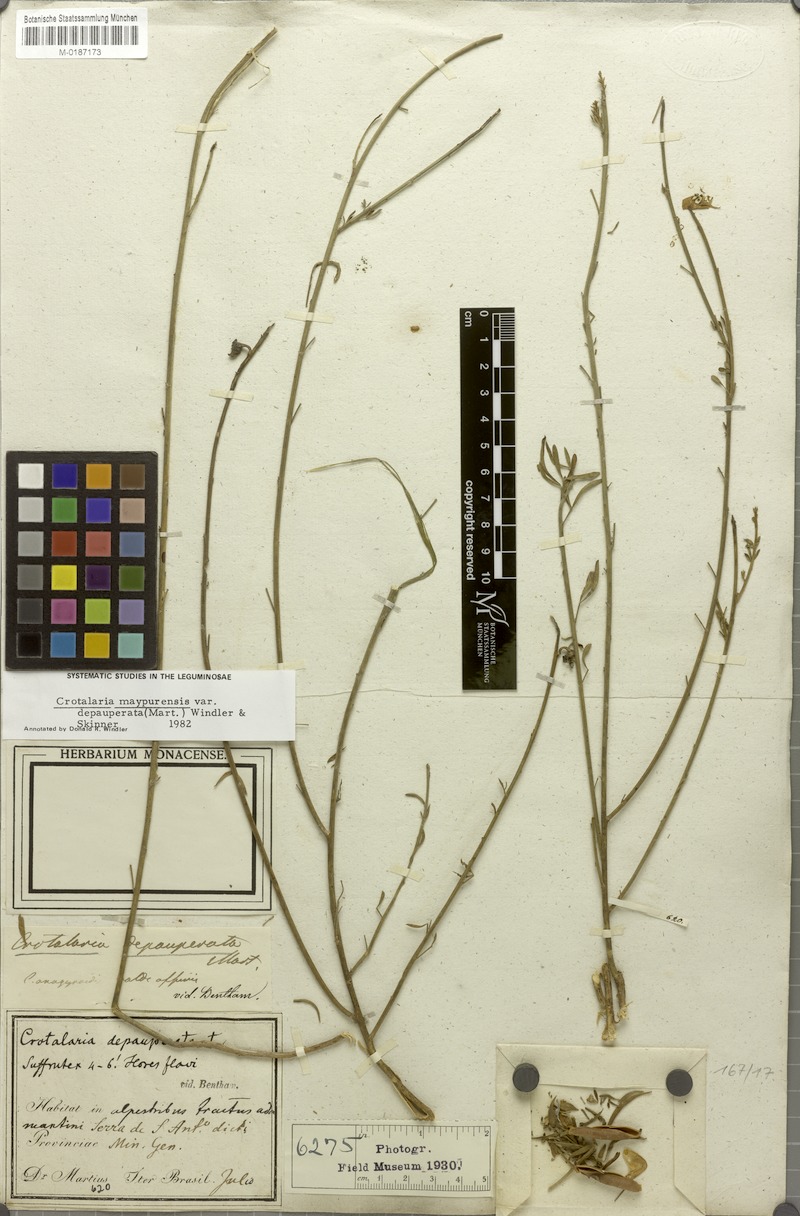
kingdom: Plantae
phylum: Tracheophyta
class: Magnoliopsida
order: Fabales
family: Fabaceae
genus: Crotalaria
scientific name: Crotalaria maypurensis
